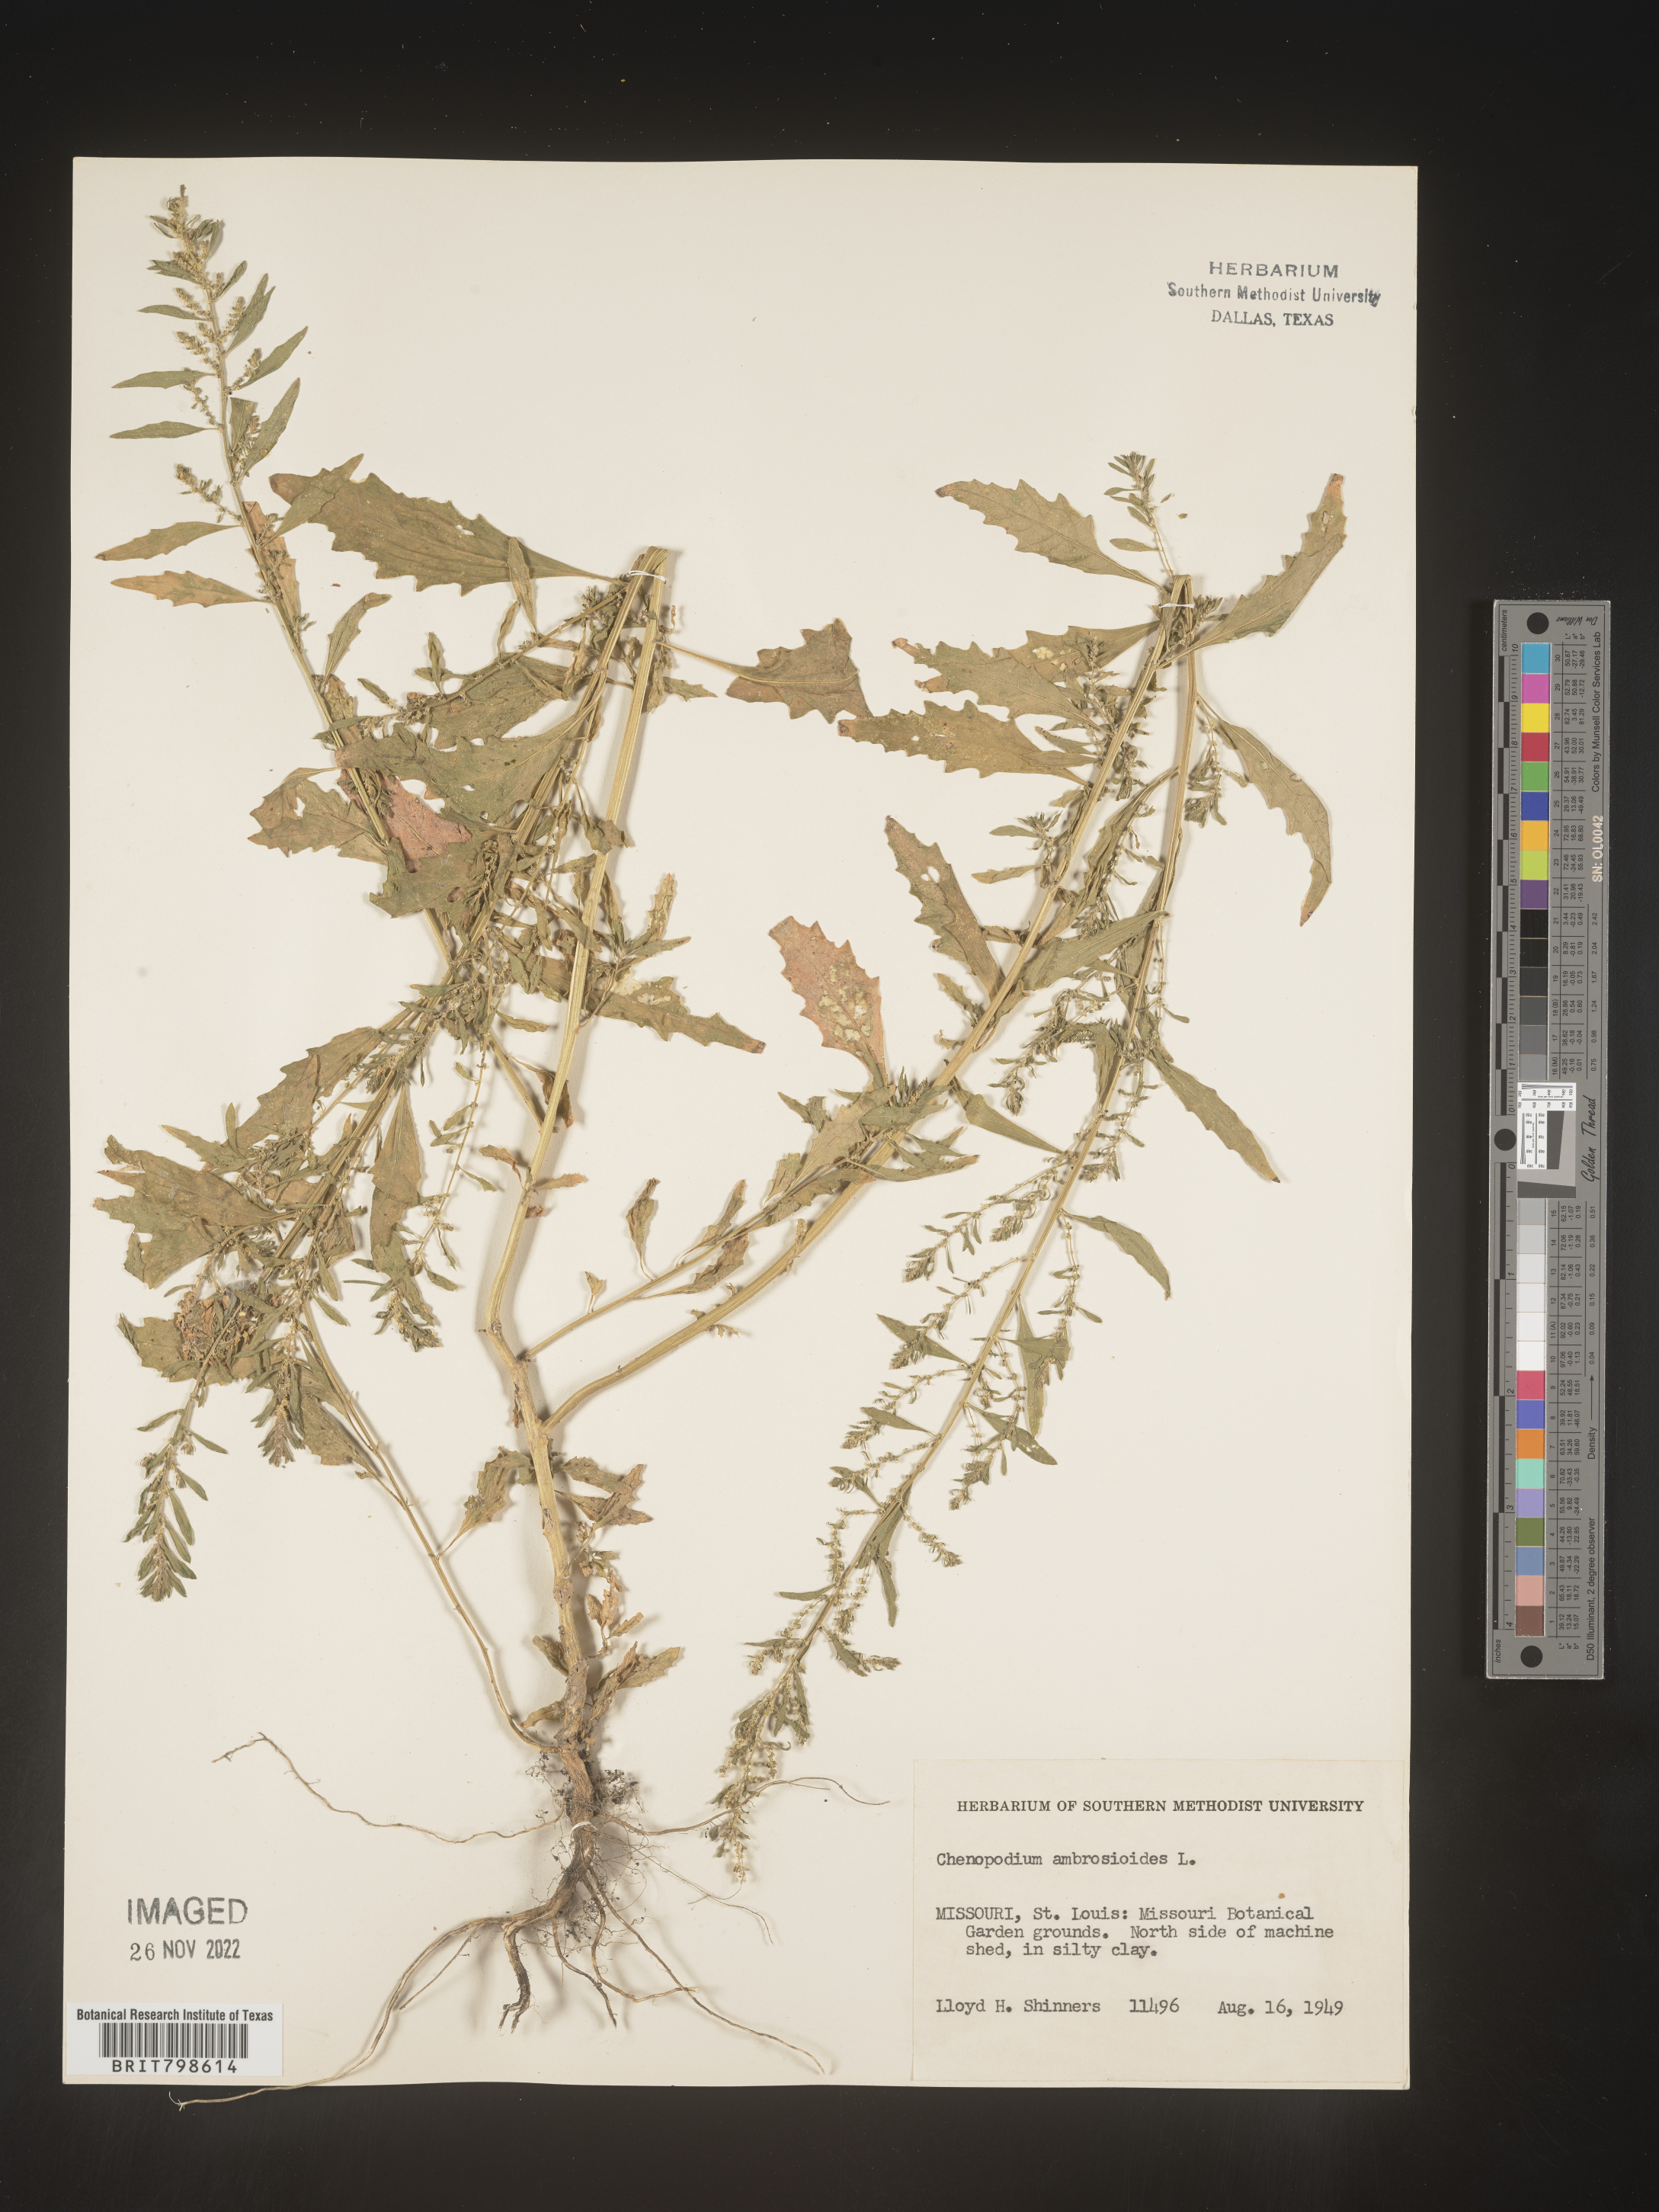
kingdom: Plantae
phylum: Tracheophyta
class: Magnoliopsida
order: Caryophyllales
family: Amaranthaceae
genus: Dysphania
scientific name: Dysphania ambrosioides
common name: Wormseed
